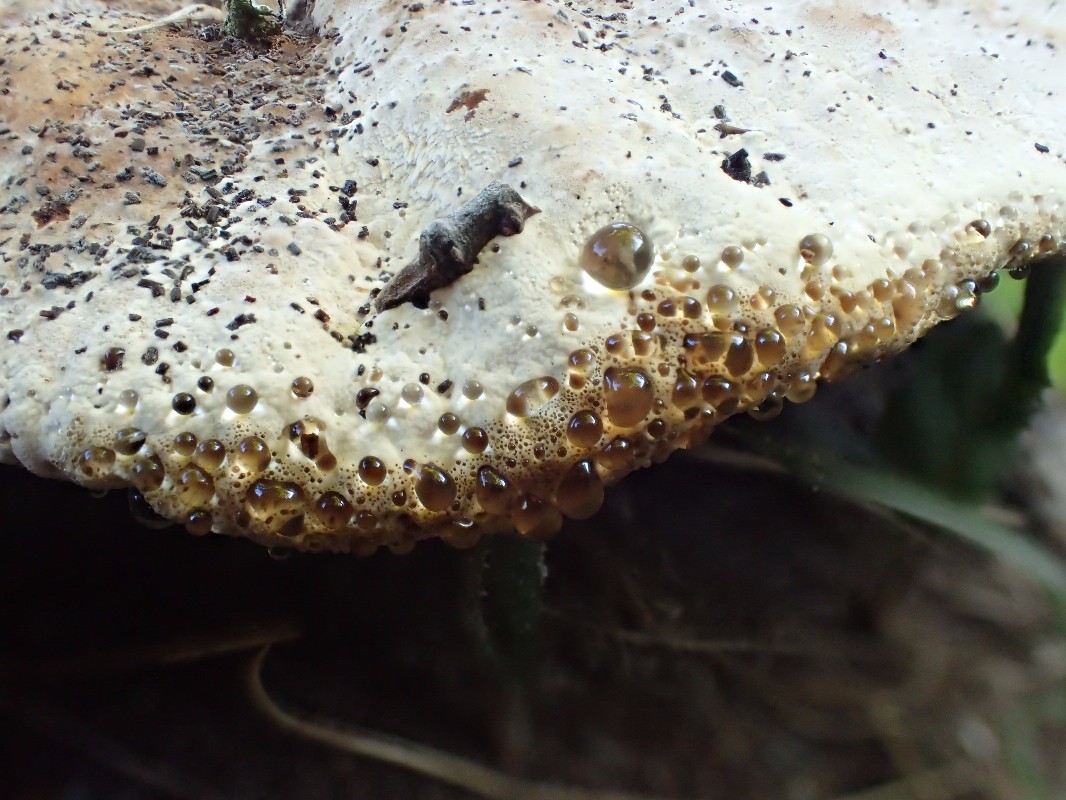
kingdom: Fungi
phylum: Basidiomycota
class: Agaricomycetes
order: Hymenochaetales
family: Hymenochaetaceae
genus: Pseudoinonotus
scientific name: Pseudoinonotus dryadeus
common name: ege-spejlporesvamp
